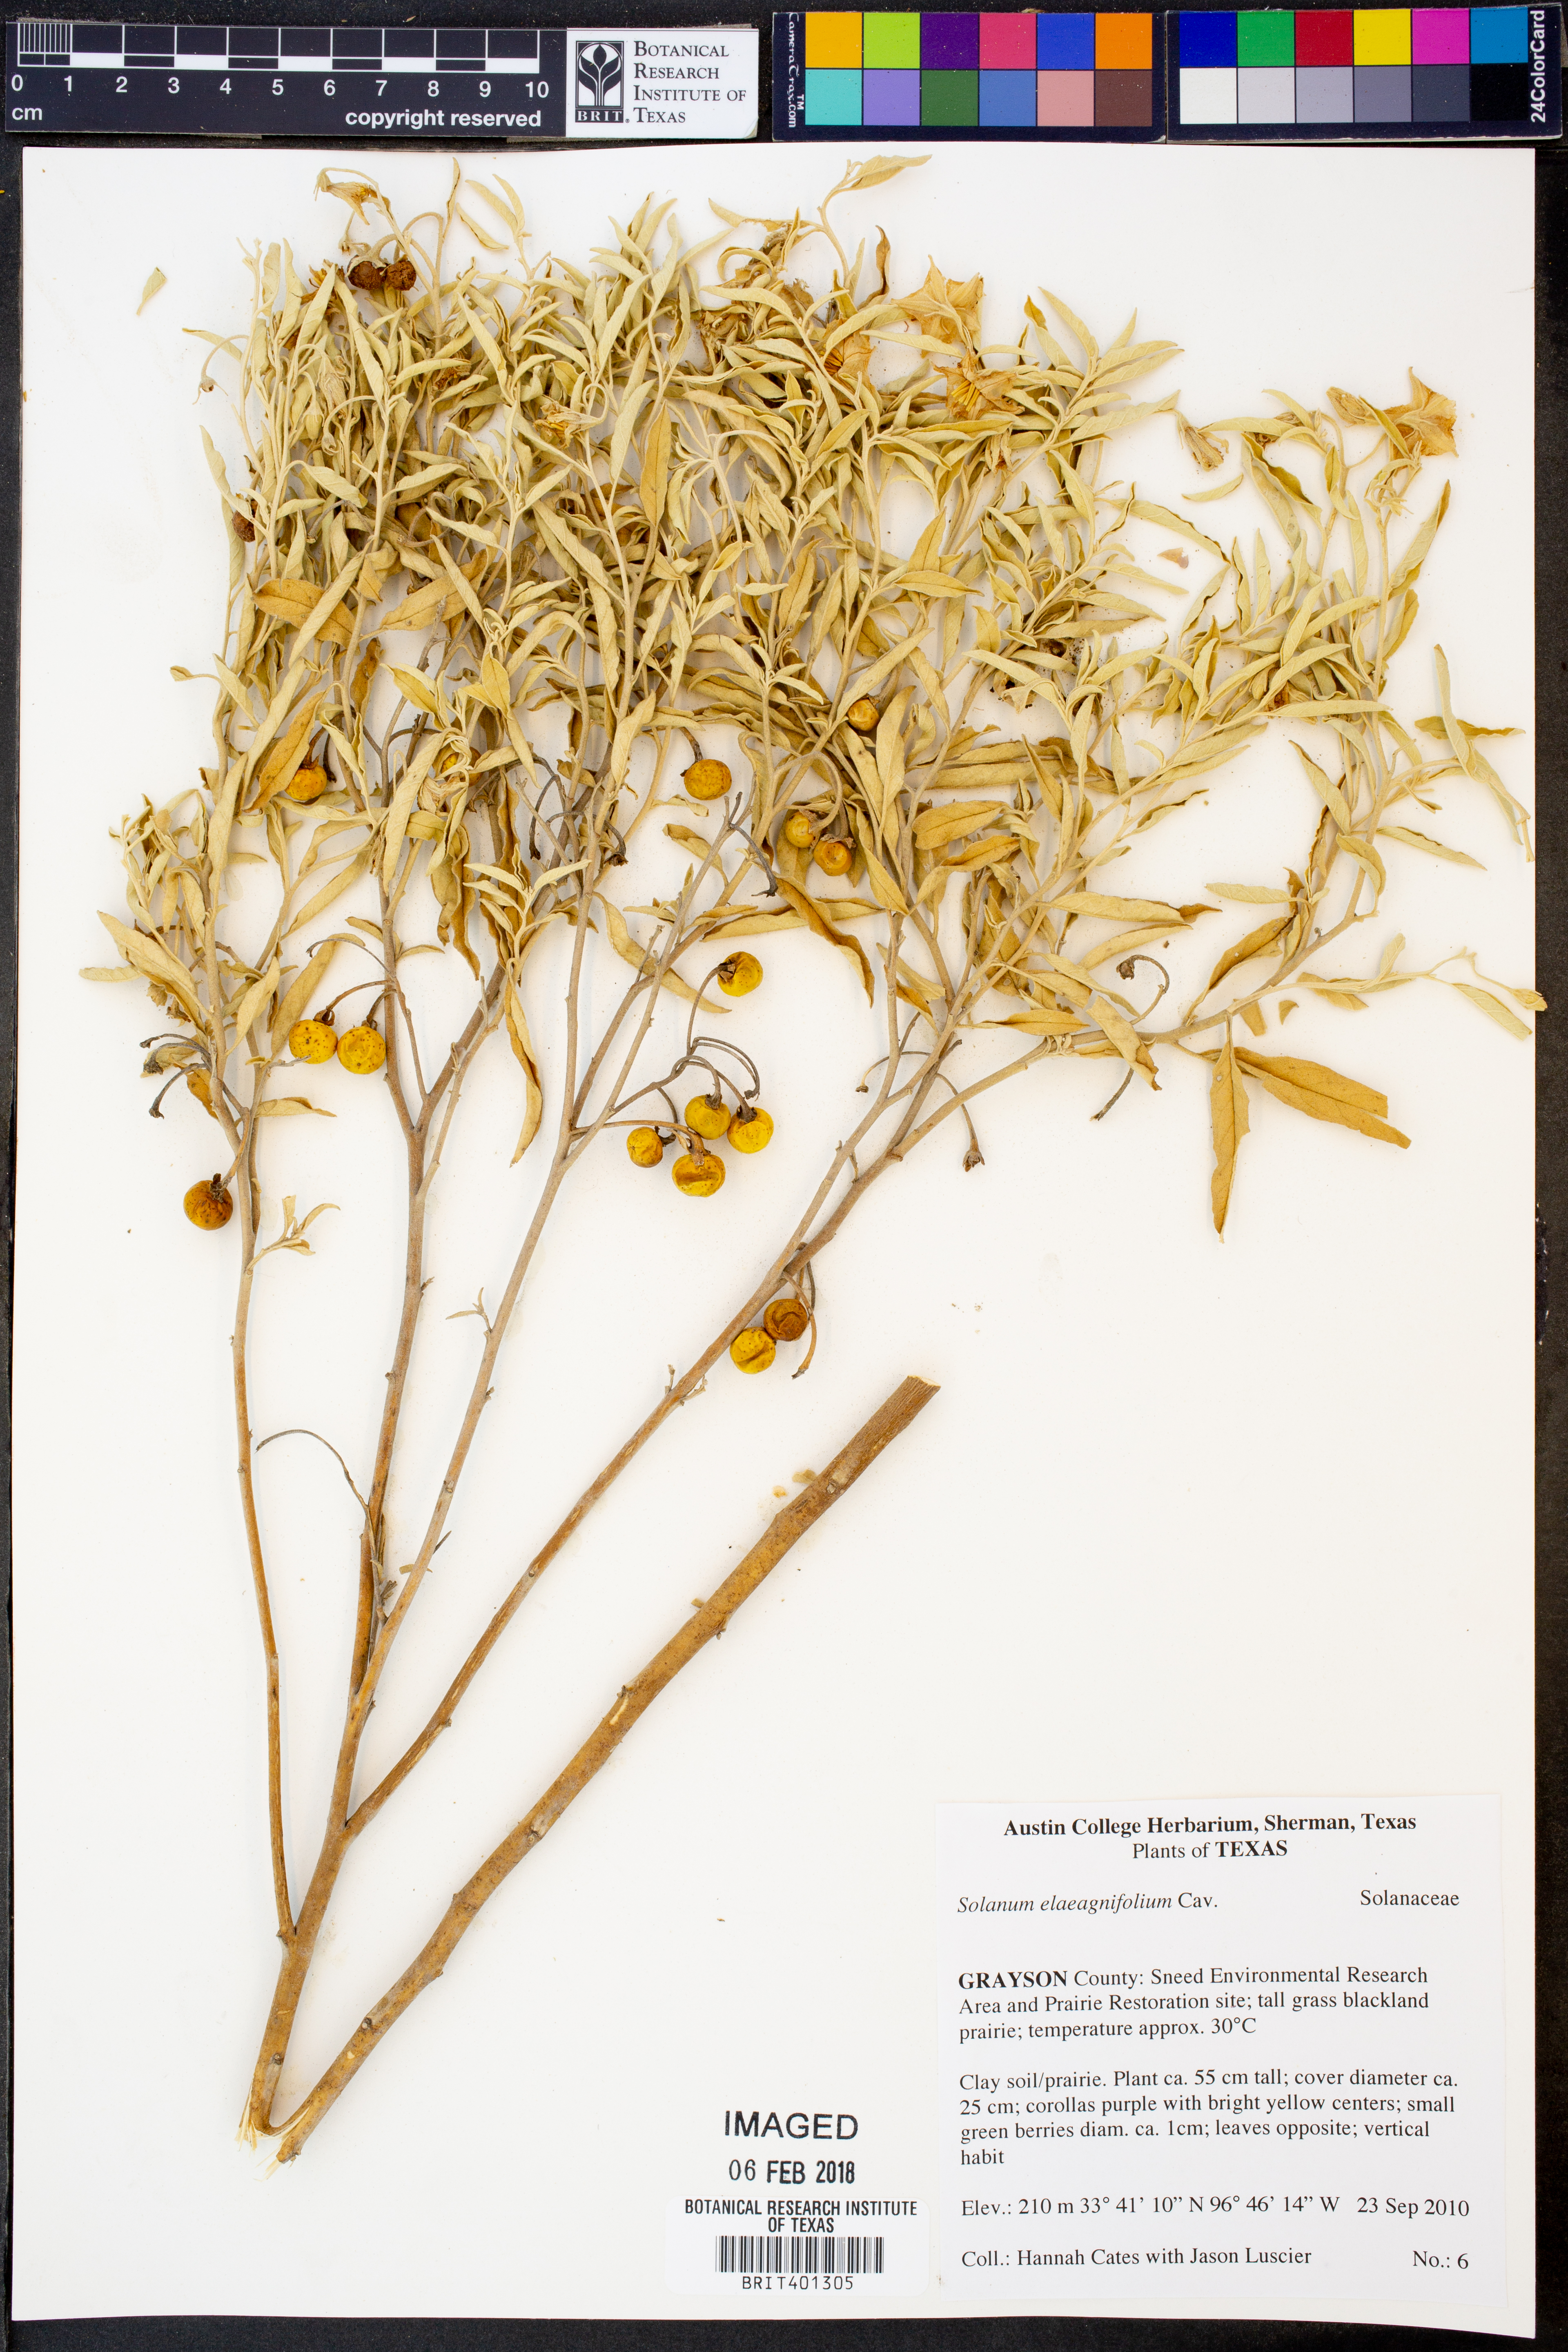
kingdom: Plantae
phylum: Tracheophyta
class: Magnoliopsida
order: Solanales
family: Solanaceae
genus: Solanum
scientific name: Solanum elaeagnifolium
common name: Silverleaf nightshade
